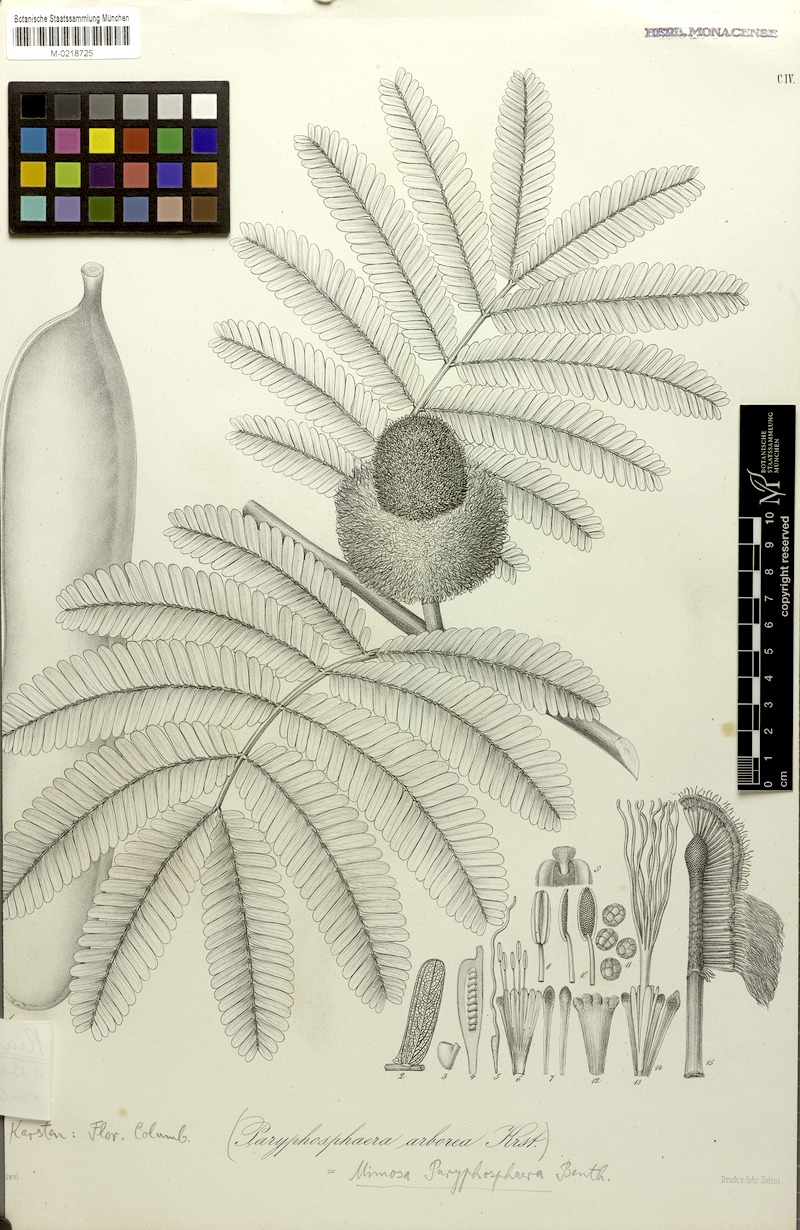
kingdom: Plantae
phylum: Tracheophyta
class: Magnoliopsida
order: Fabales
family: Fabaceae
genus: Parkia
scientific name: Parkia nitida
